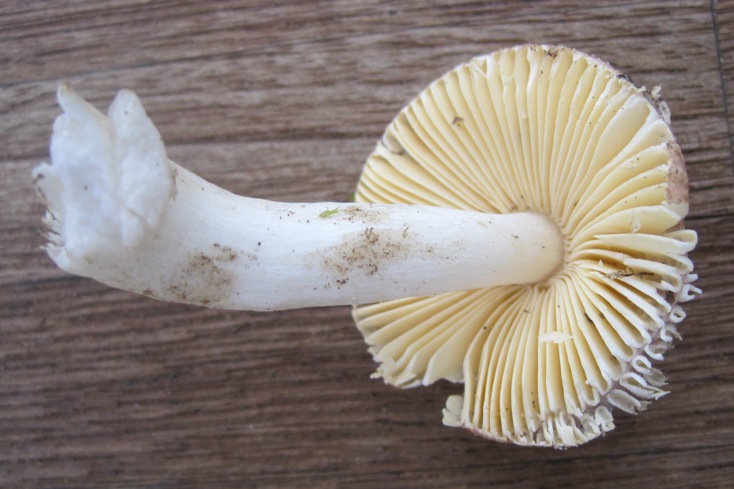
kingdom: Fungi
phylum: Basidiomycota
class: Agaricomycetes
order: Russulales
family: Russulaceae
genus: Russula
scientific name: Russula nauseosa
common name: spinkel skørhat
